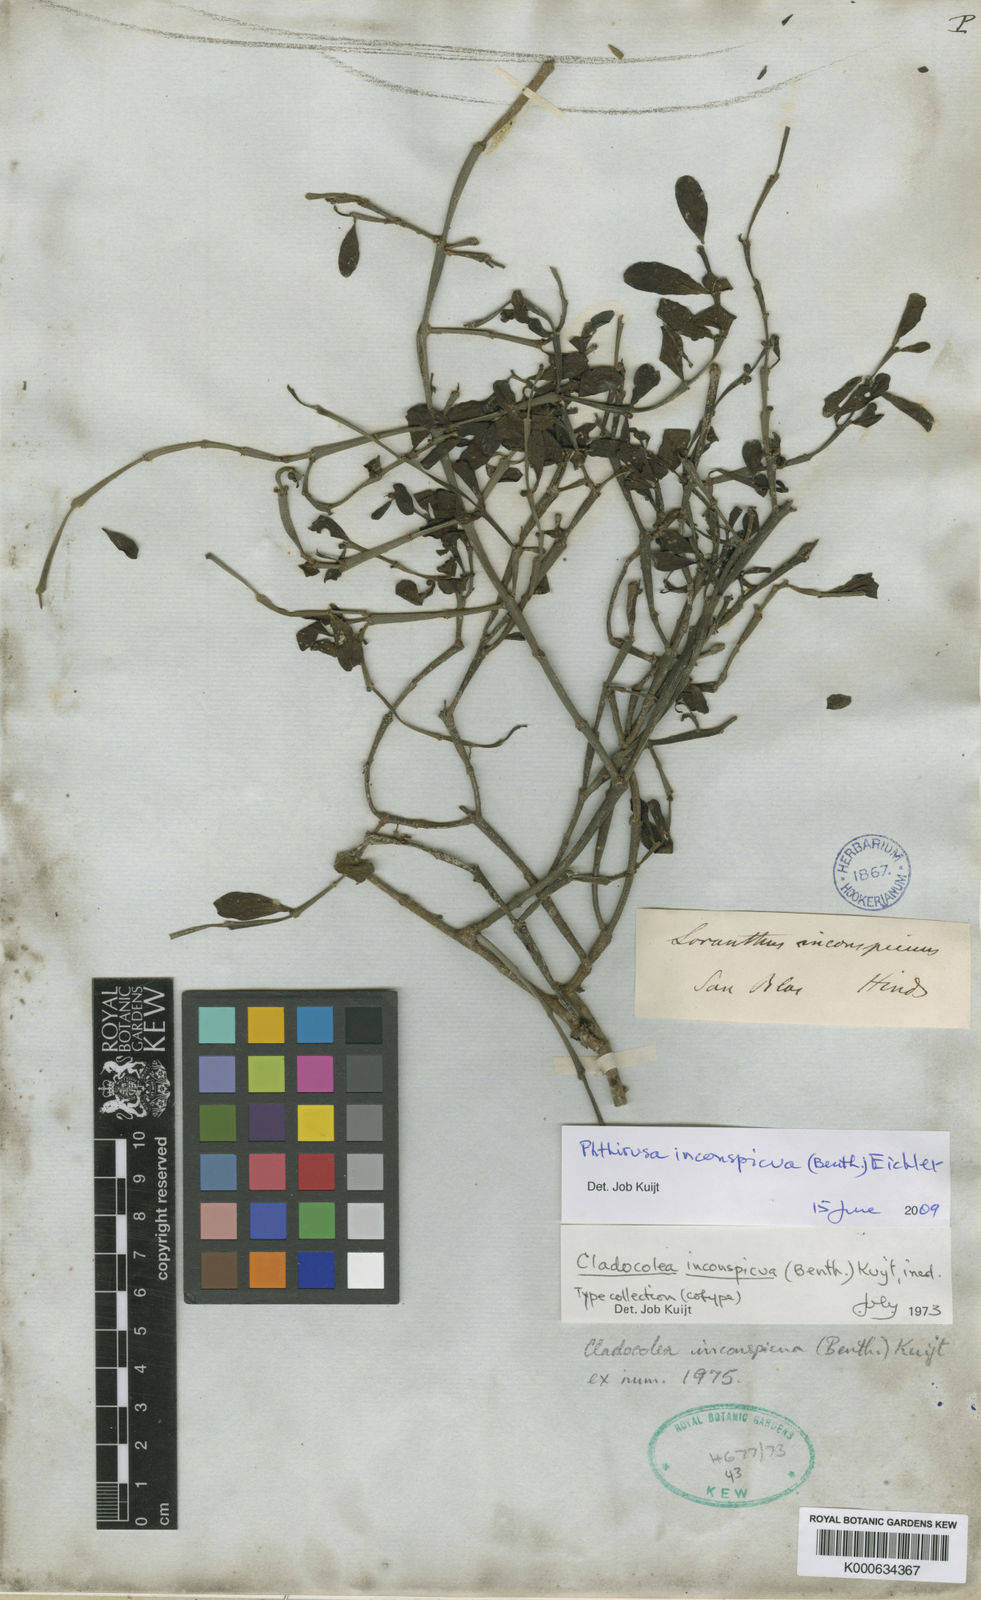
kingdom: Plantae
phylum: Tracheophyta
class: Magnoliopsida
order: Santalales
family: Loranthaceae
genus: Phthirusa
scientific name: Phthirusa inconspicua
